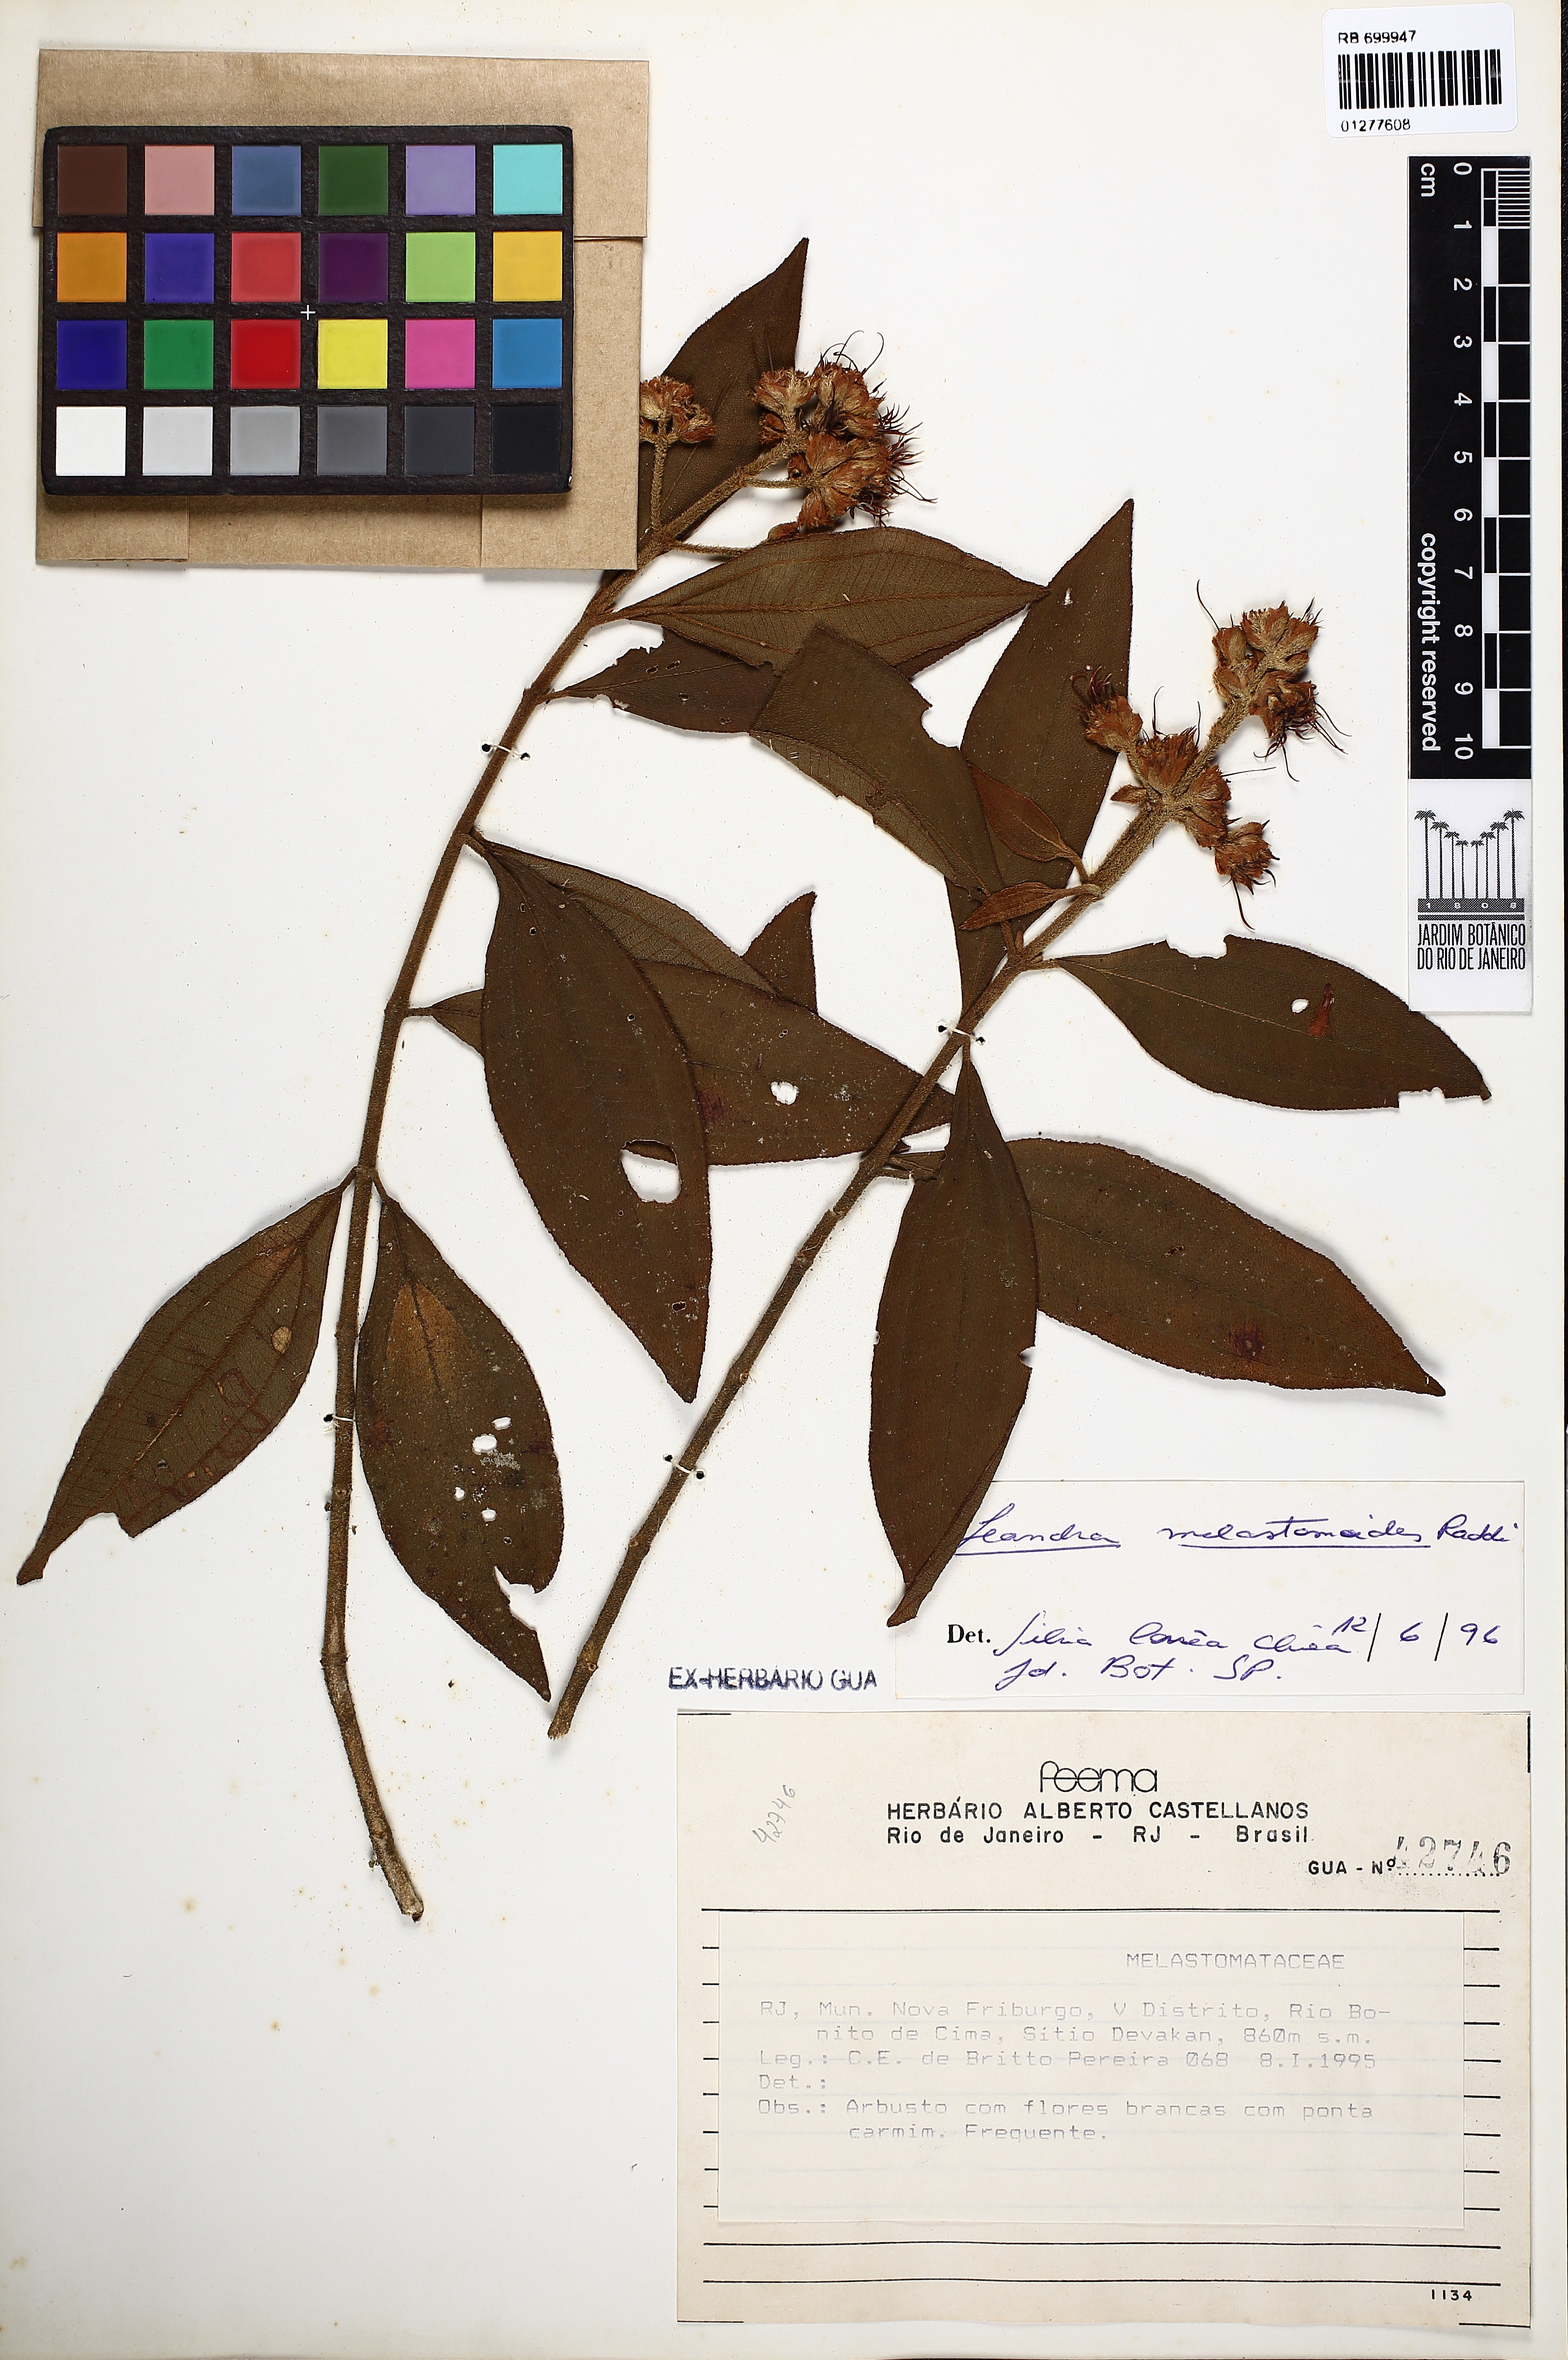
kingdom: Plantae
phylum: Tracheophyta
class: Magnoliopsida
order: Myrtales
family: Melastomataceae
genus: Miconia
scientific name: Miconia melastomoides
